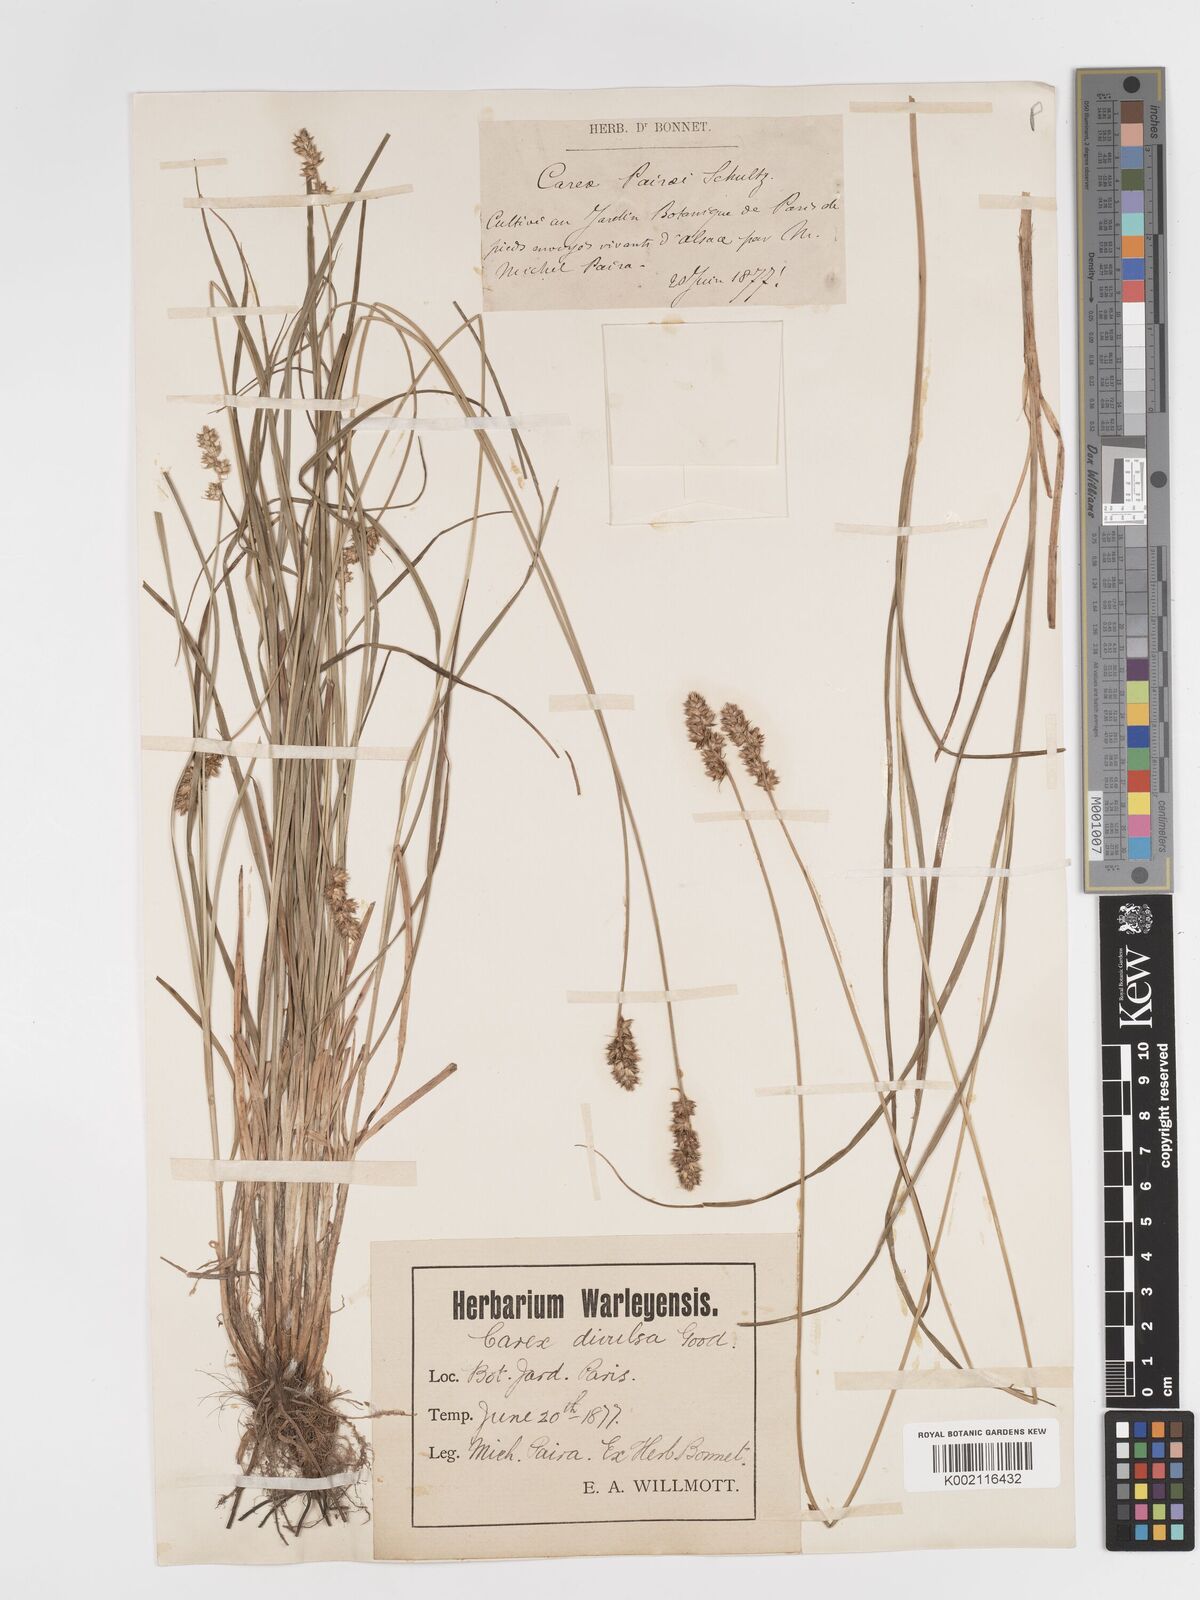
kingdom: Plantae
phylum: Tracheophyta
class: Liliopsida
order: Poales
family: Cyperaceae
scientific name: Cyperaceae
